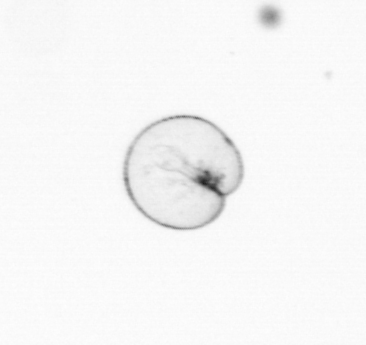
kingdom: Chromista
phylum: Myzozoa
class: Dinophyceae
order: Noctilucales
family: Noctilucaceae
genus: Noctiluca
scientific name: Noctiluca scintillans
